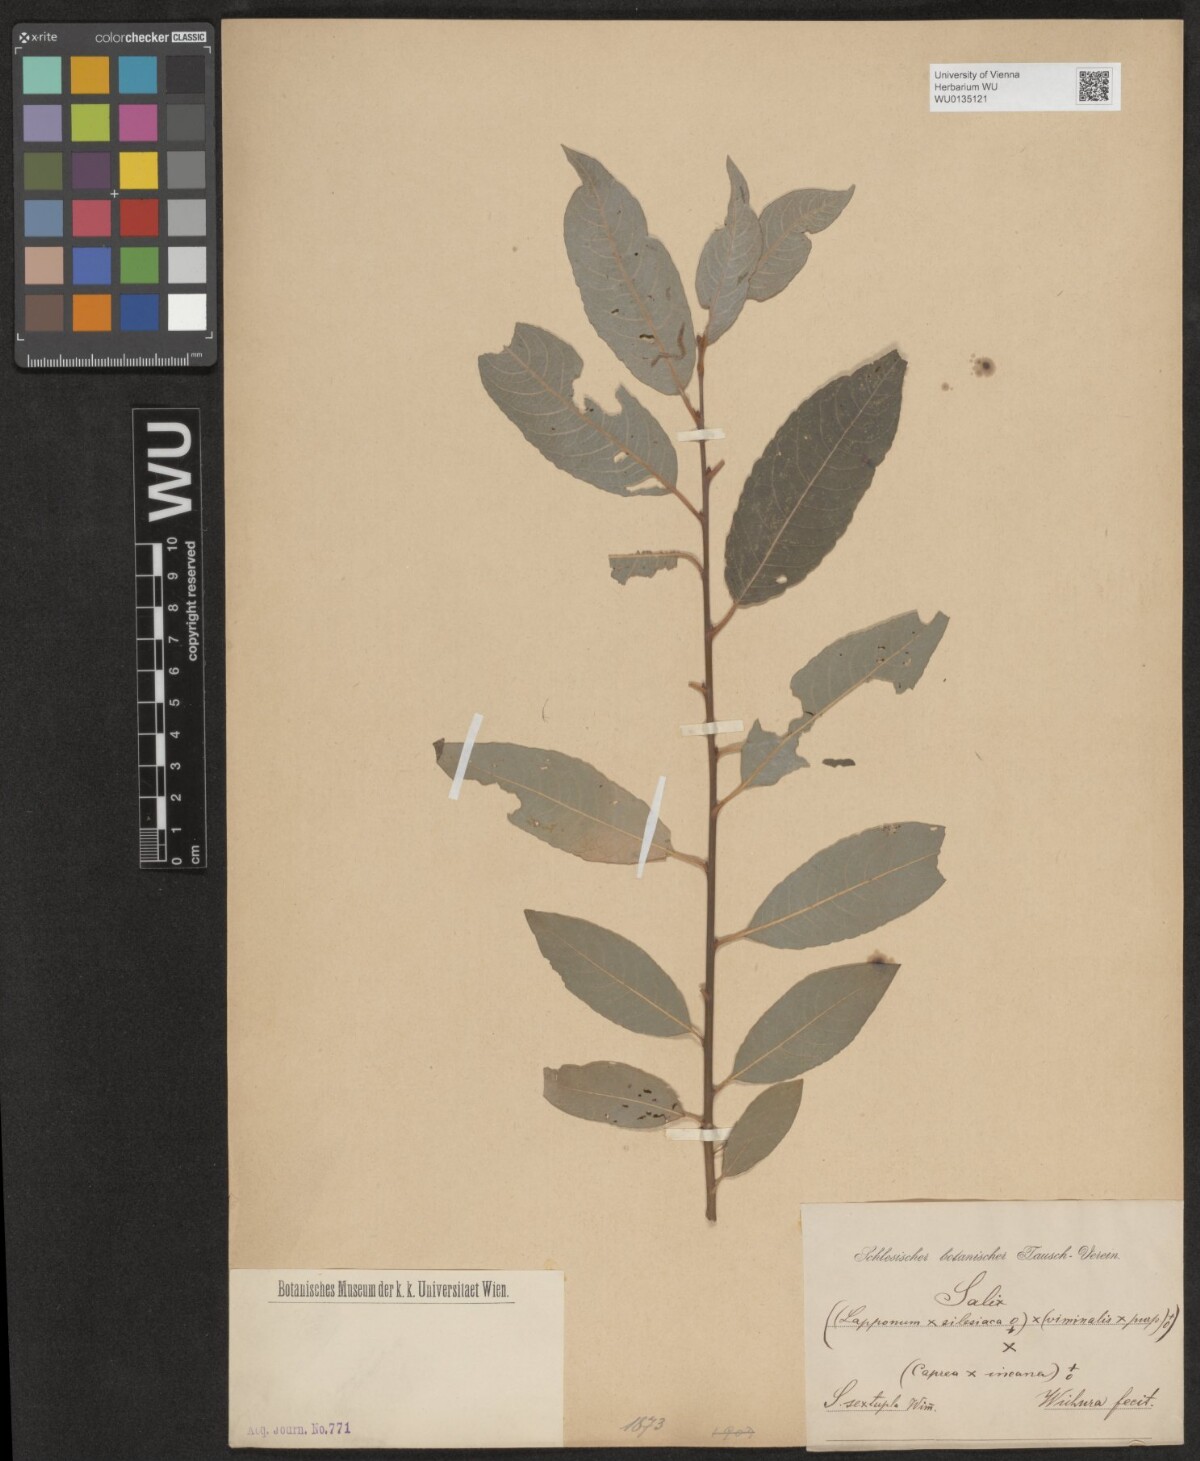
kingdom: Plantae
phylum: Tracheophyta
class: Magnoliopsida
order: Malpighiales
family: Salicaceae
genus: Salix
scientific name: Salix
